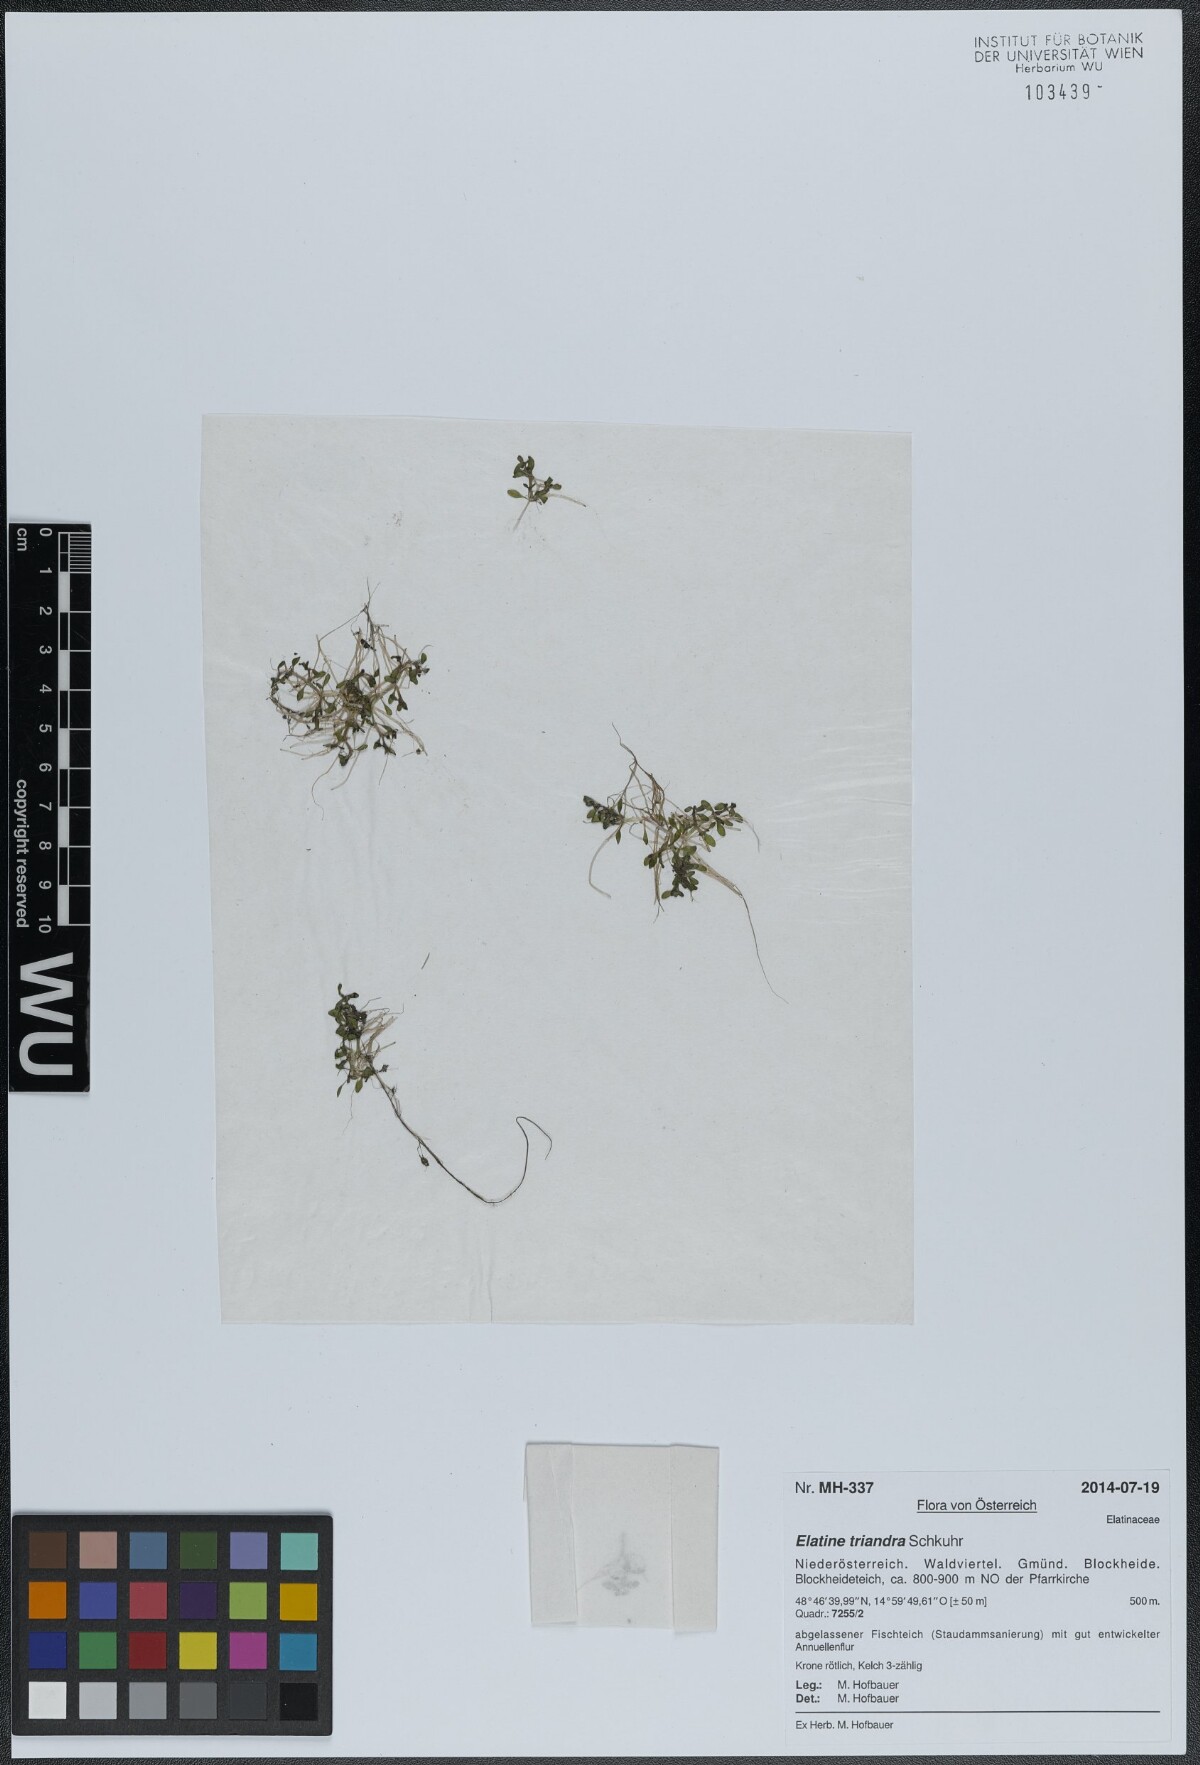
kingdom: Plantae
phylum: Tracheophyta
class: Magnoliopsida
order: Malpighiales
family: Elatinaceae
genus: Elatine
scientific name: Elatine triandra
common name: Three-stamened waterwort
